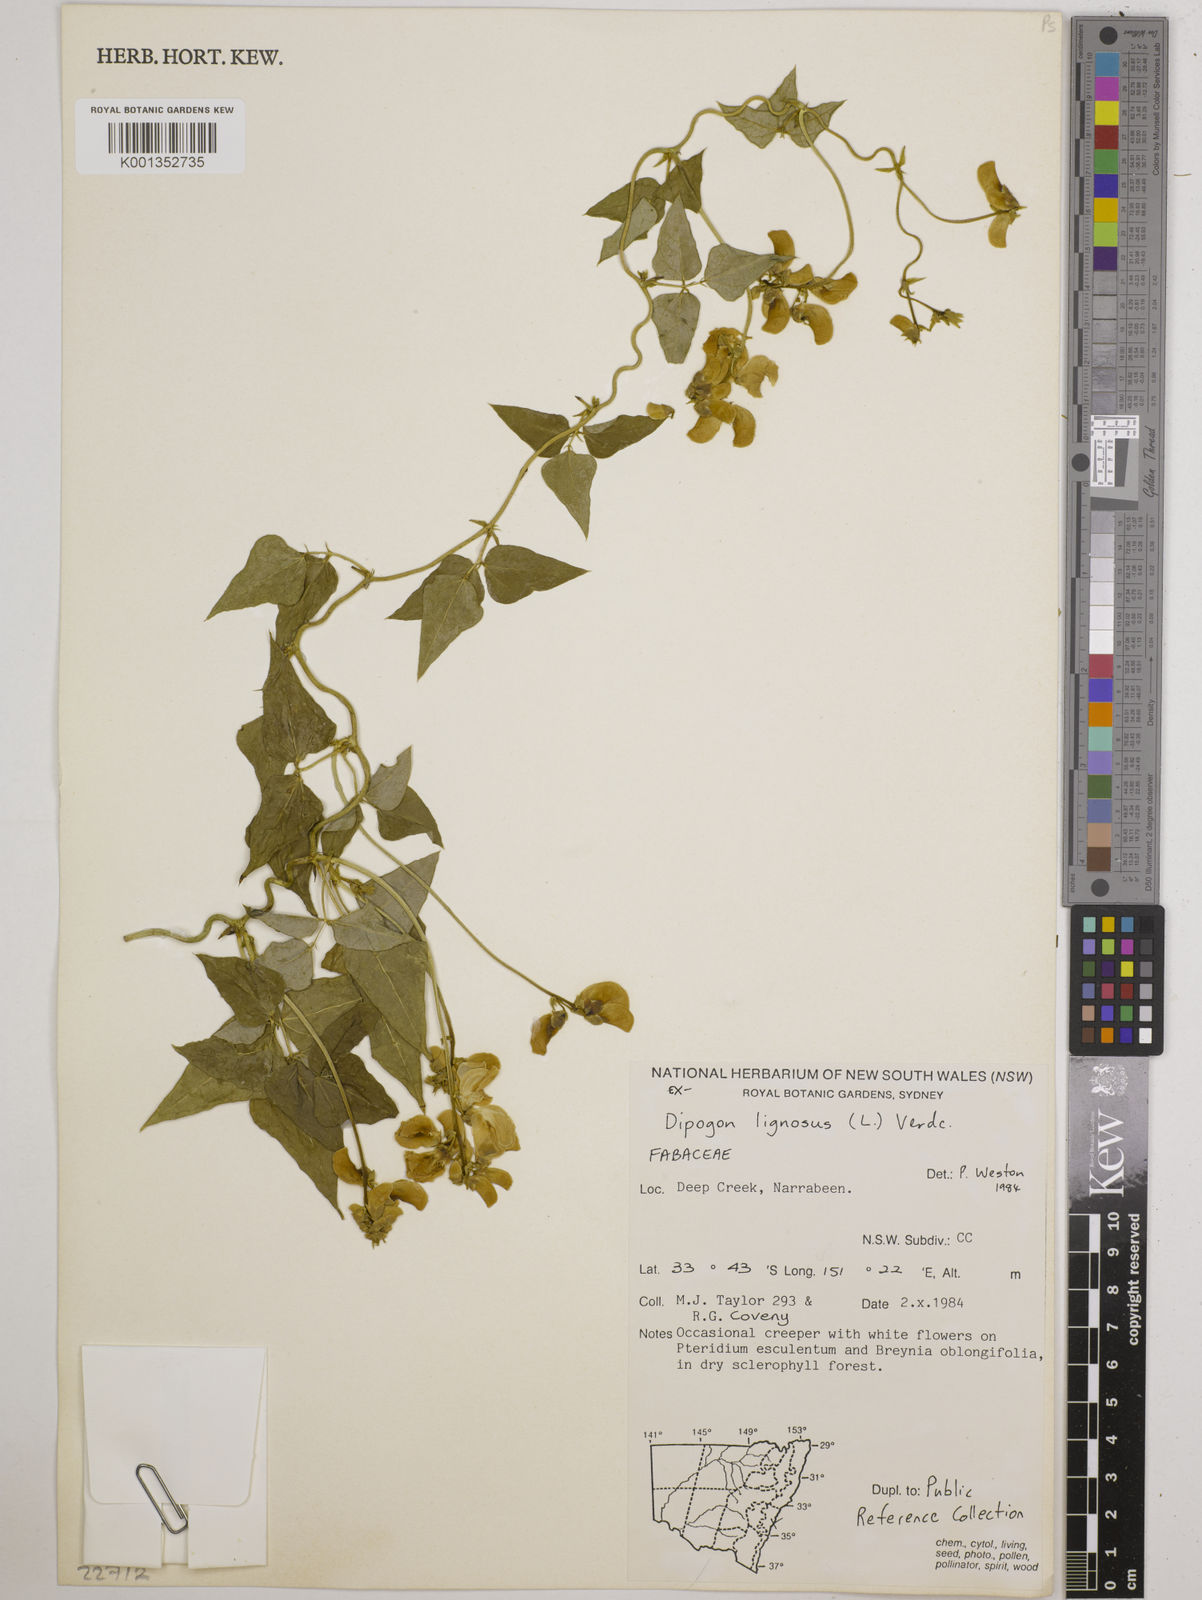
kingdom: Plantae
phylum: Tracheophyta
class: Magnoliopsida
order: Fabales
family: Fabaceae
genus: Dipogon
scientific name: Dipogon lignosus
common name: Okie bean
